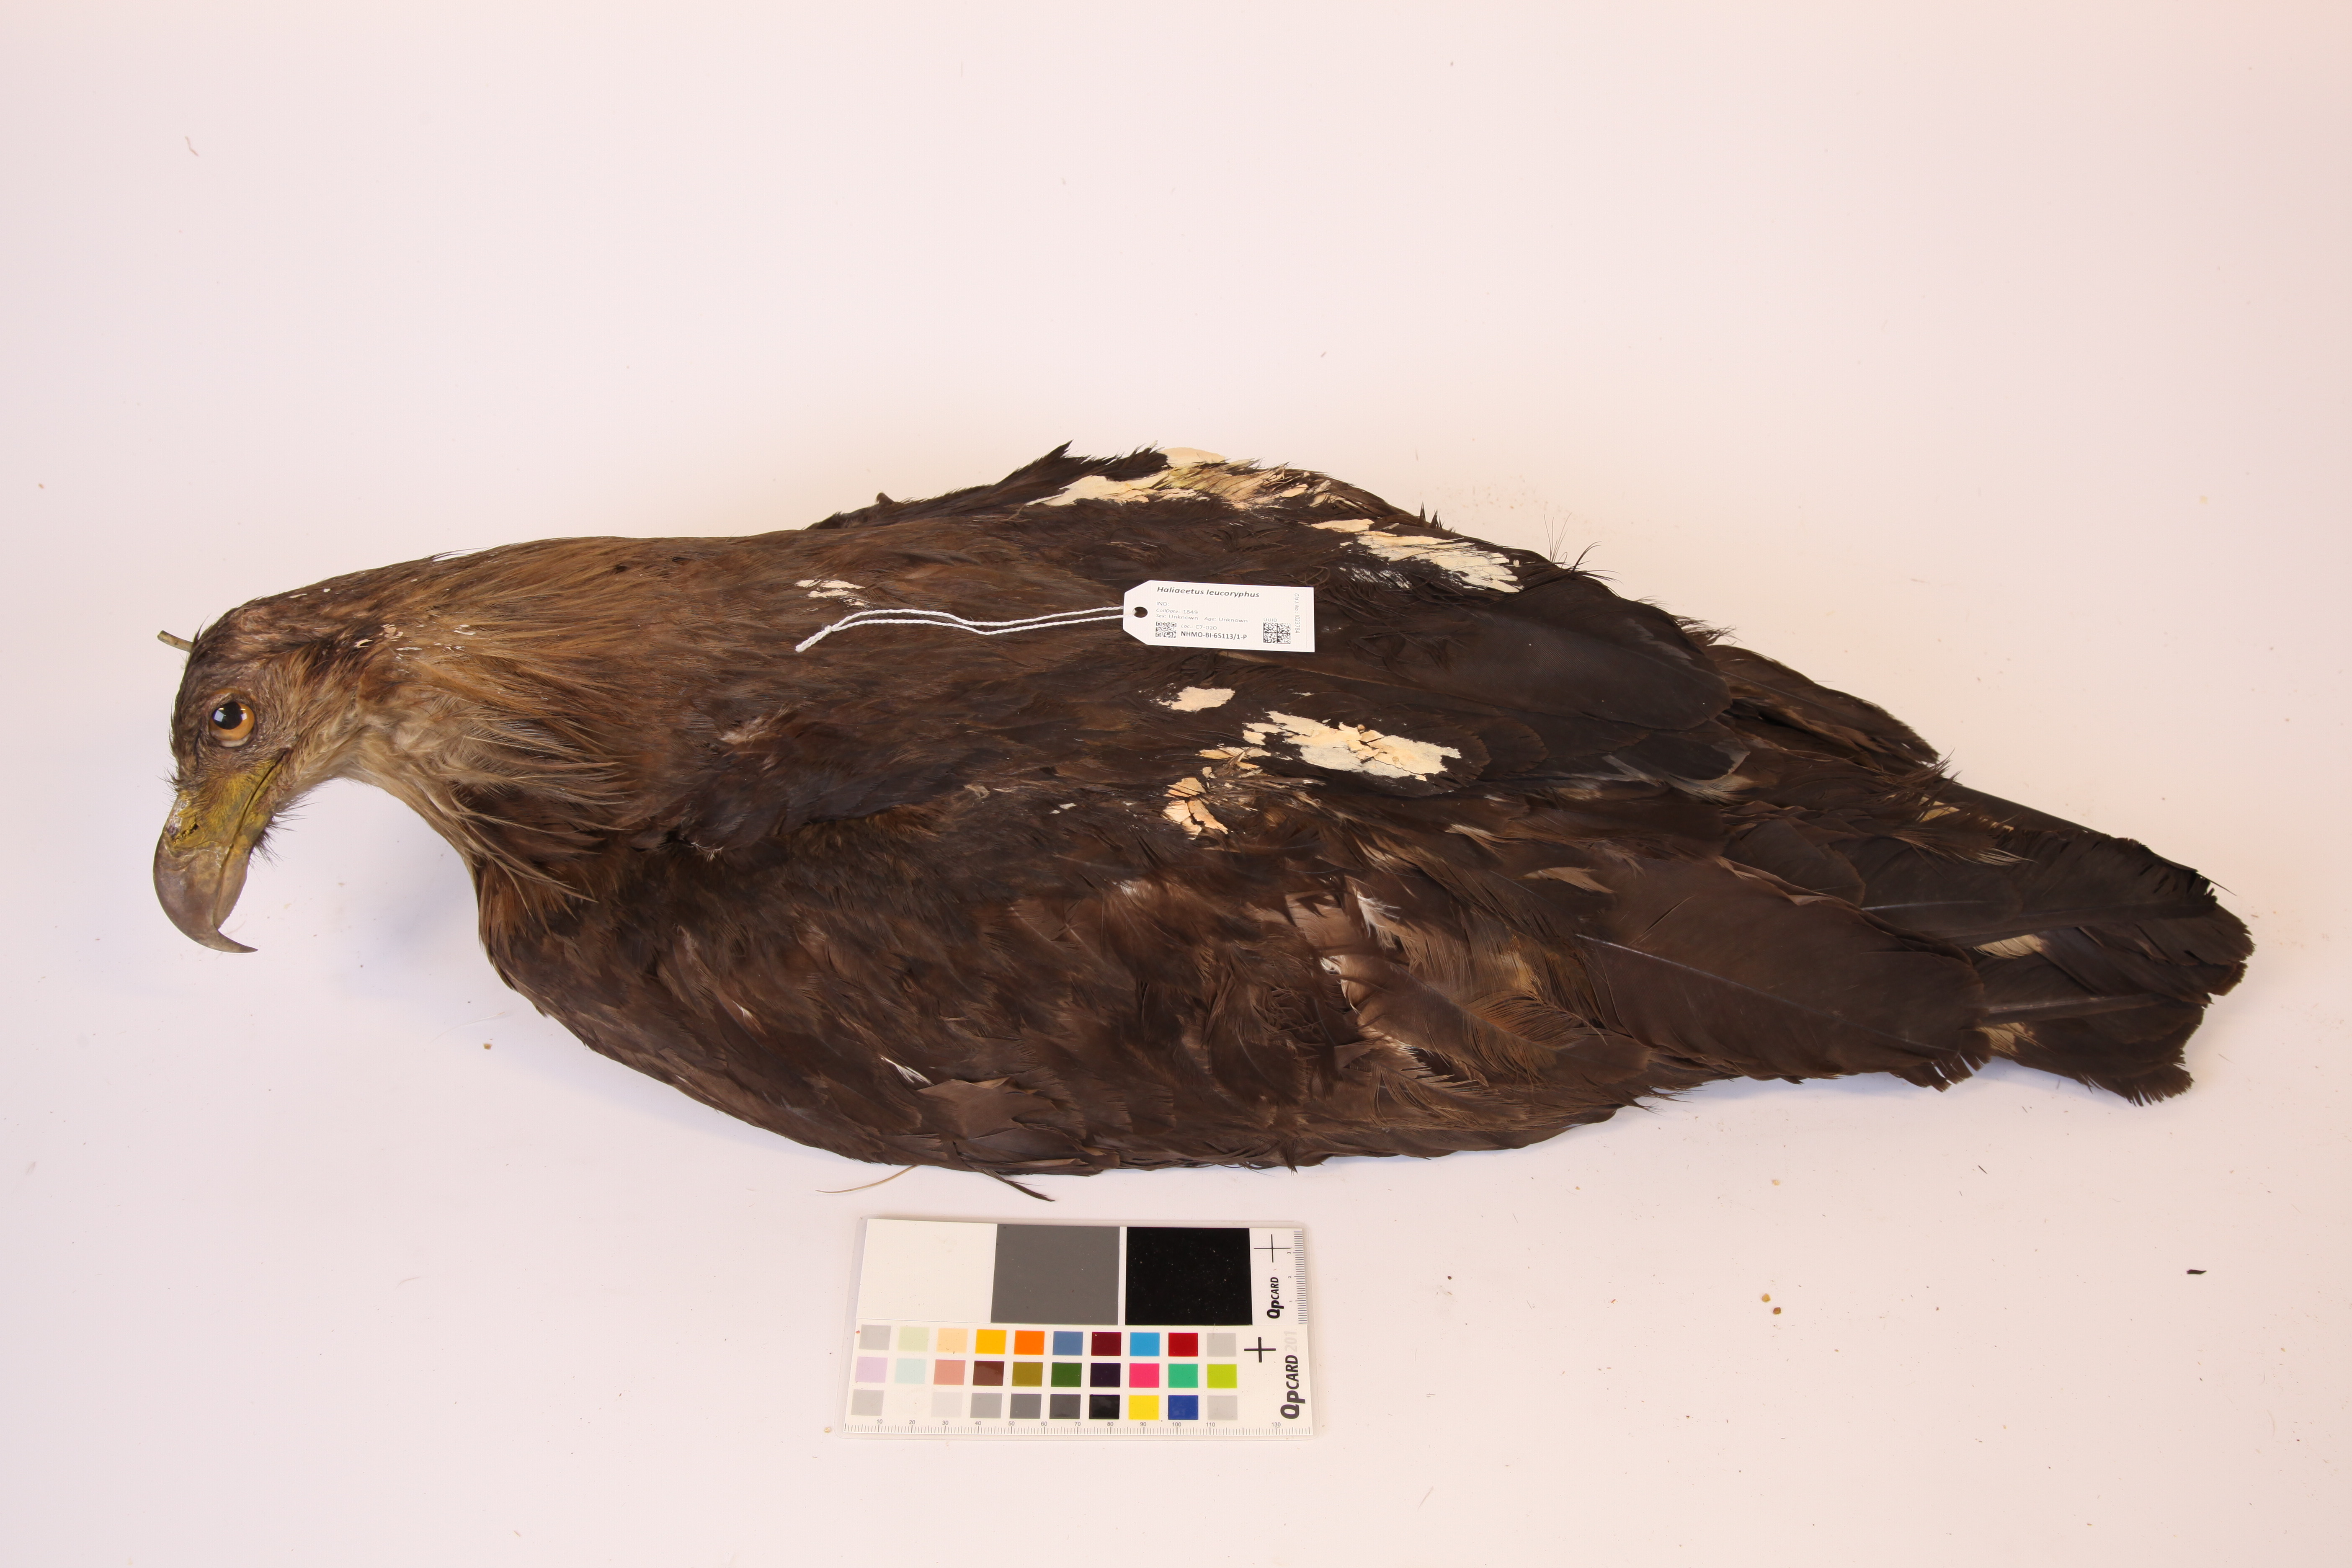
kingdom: Animalia
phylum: Chordata
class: Aves
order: Accipitriformes
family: Accipitridae
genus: Haliaeetus
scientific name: Haliaeetus leucoryphus
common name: Pallas's fish eagle
